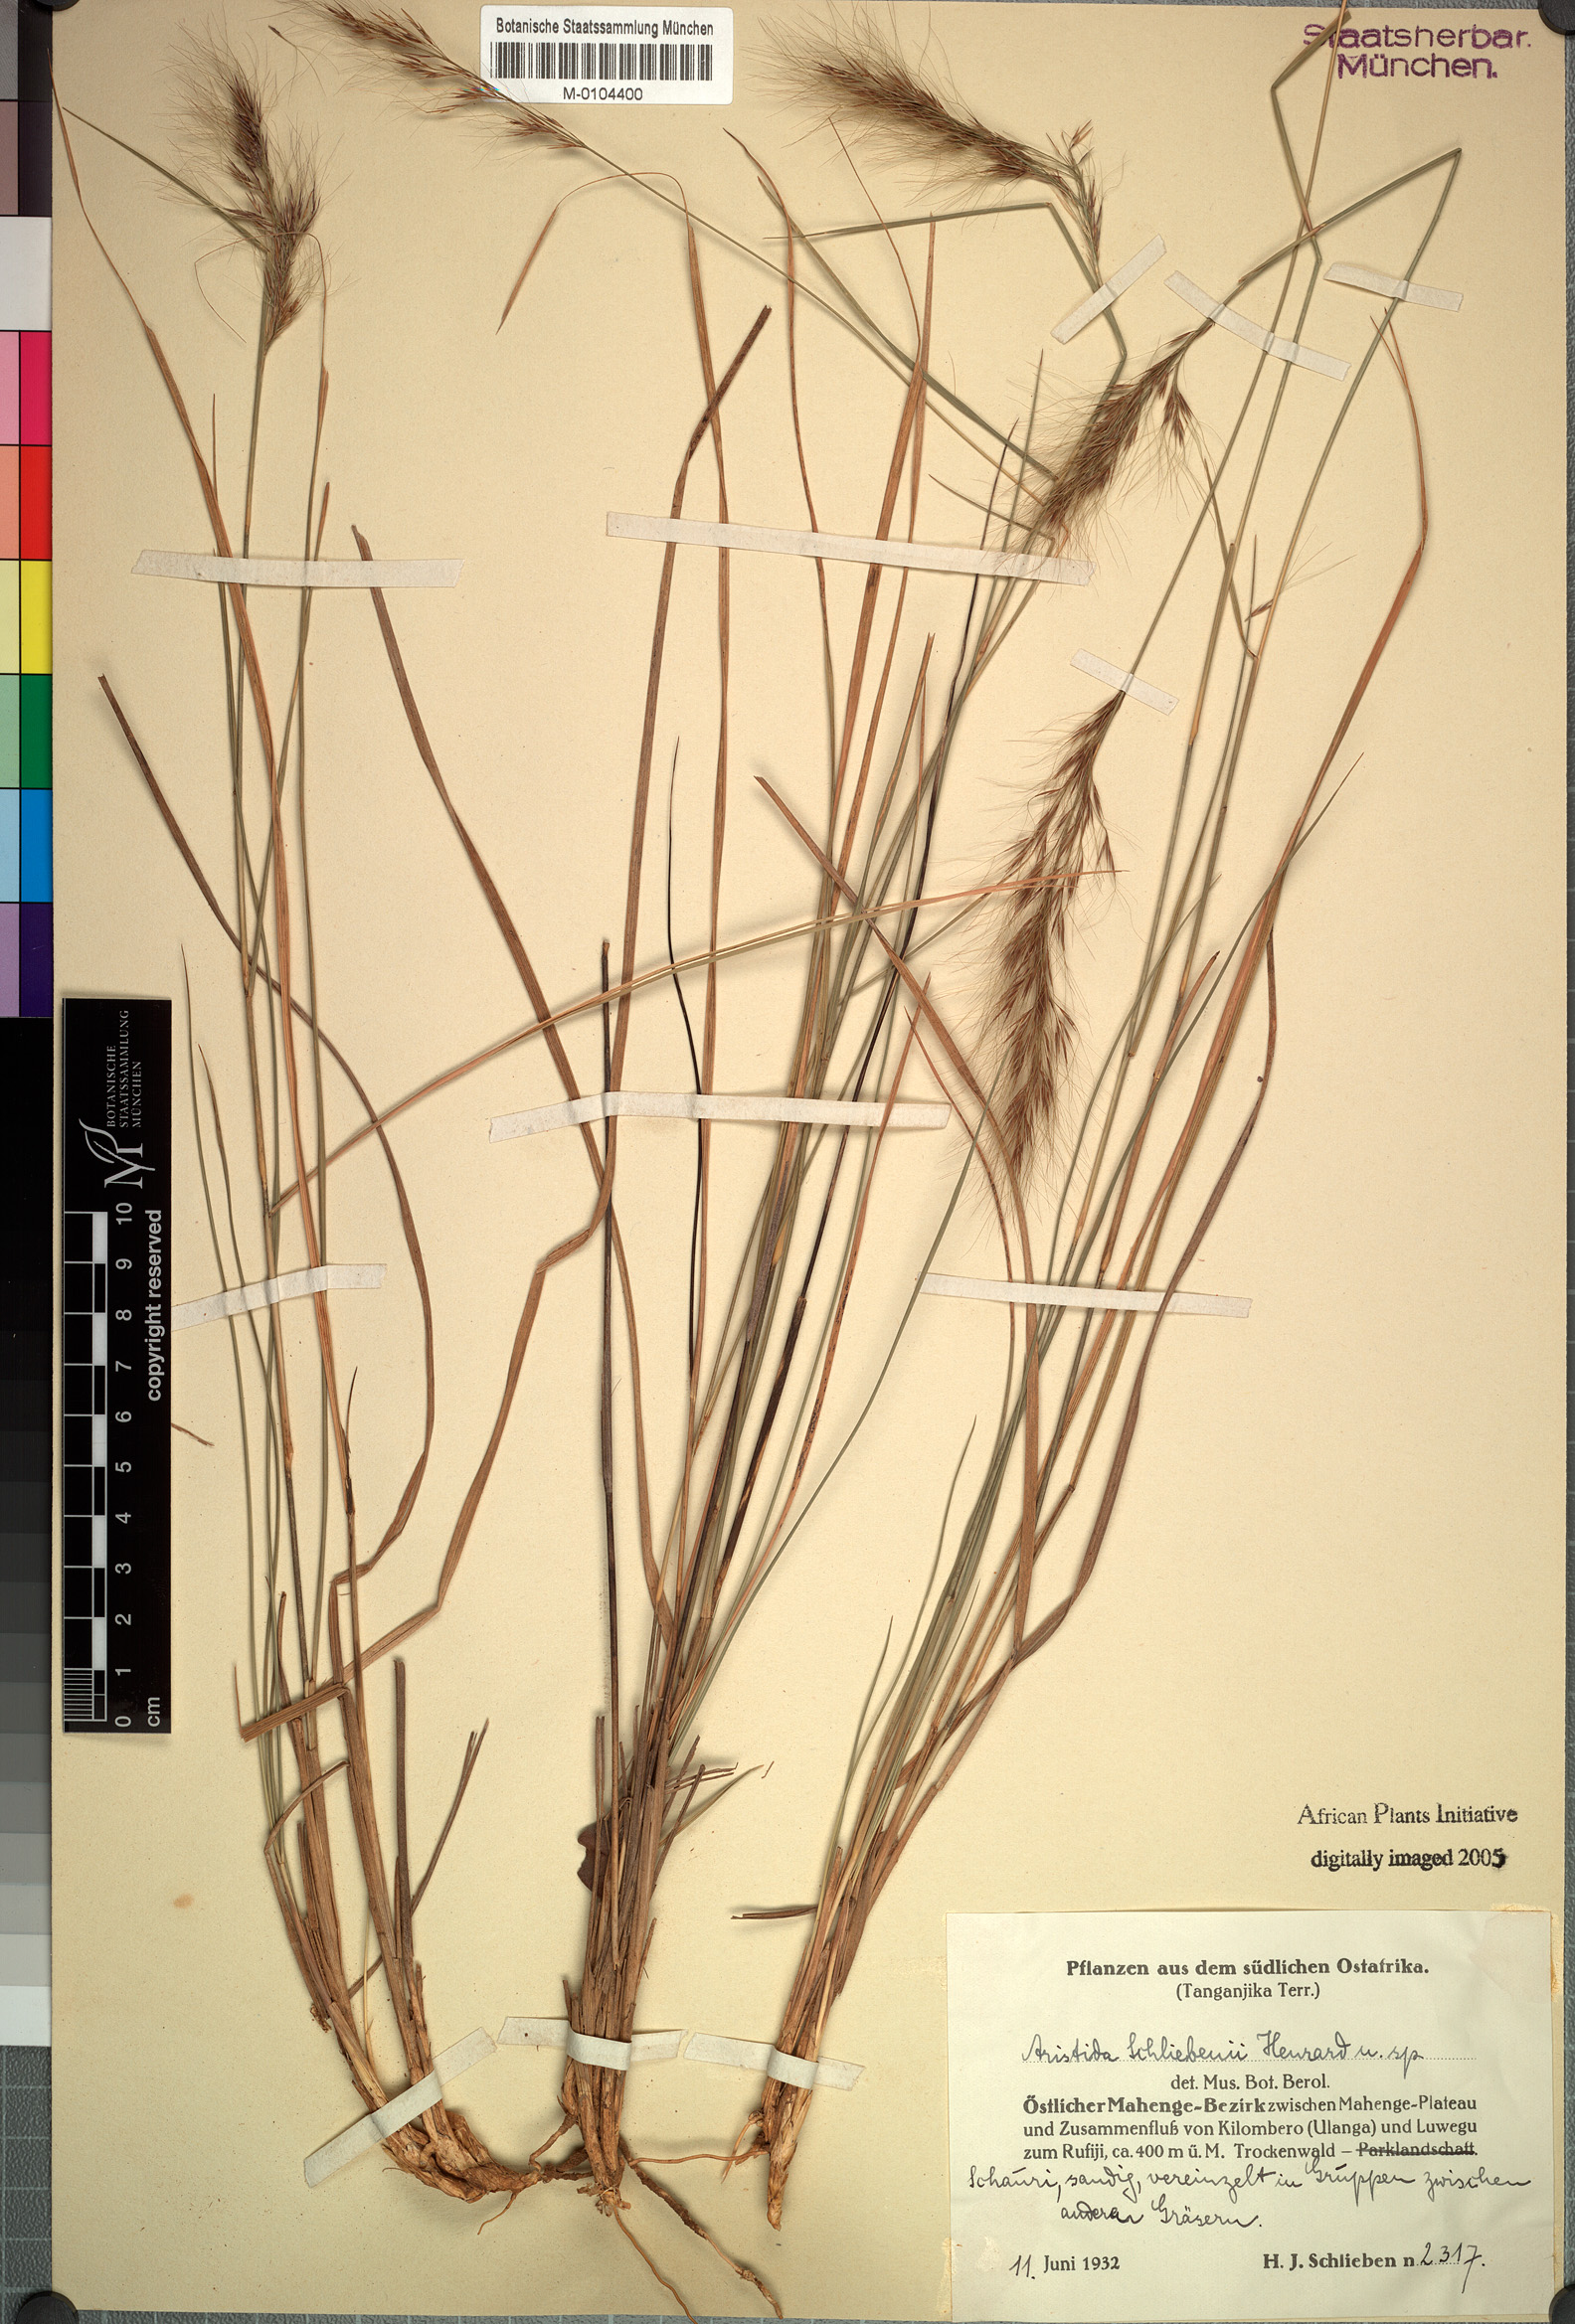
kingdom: Plantae
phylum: Tracheophyta
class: Liliopsida
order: Poales
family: Poaceae
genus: Aristida
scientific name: Aristida junciformis
